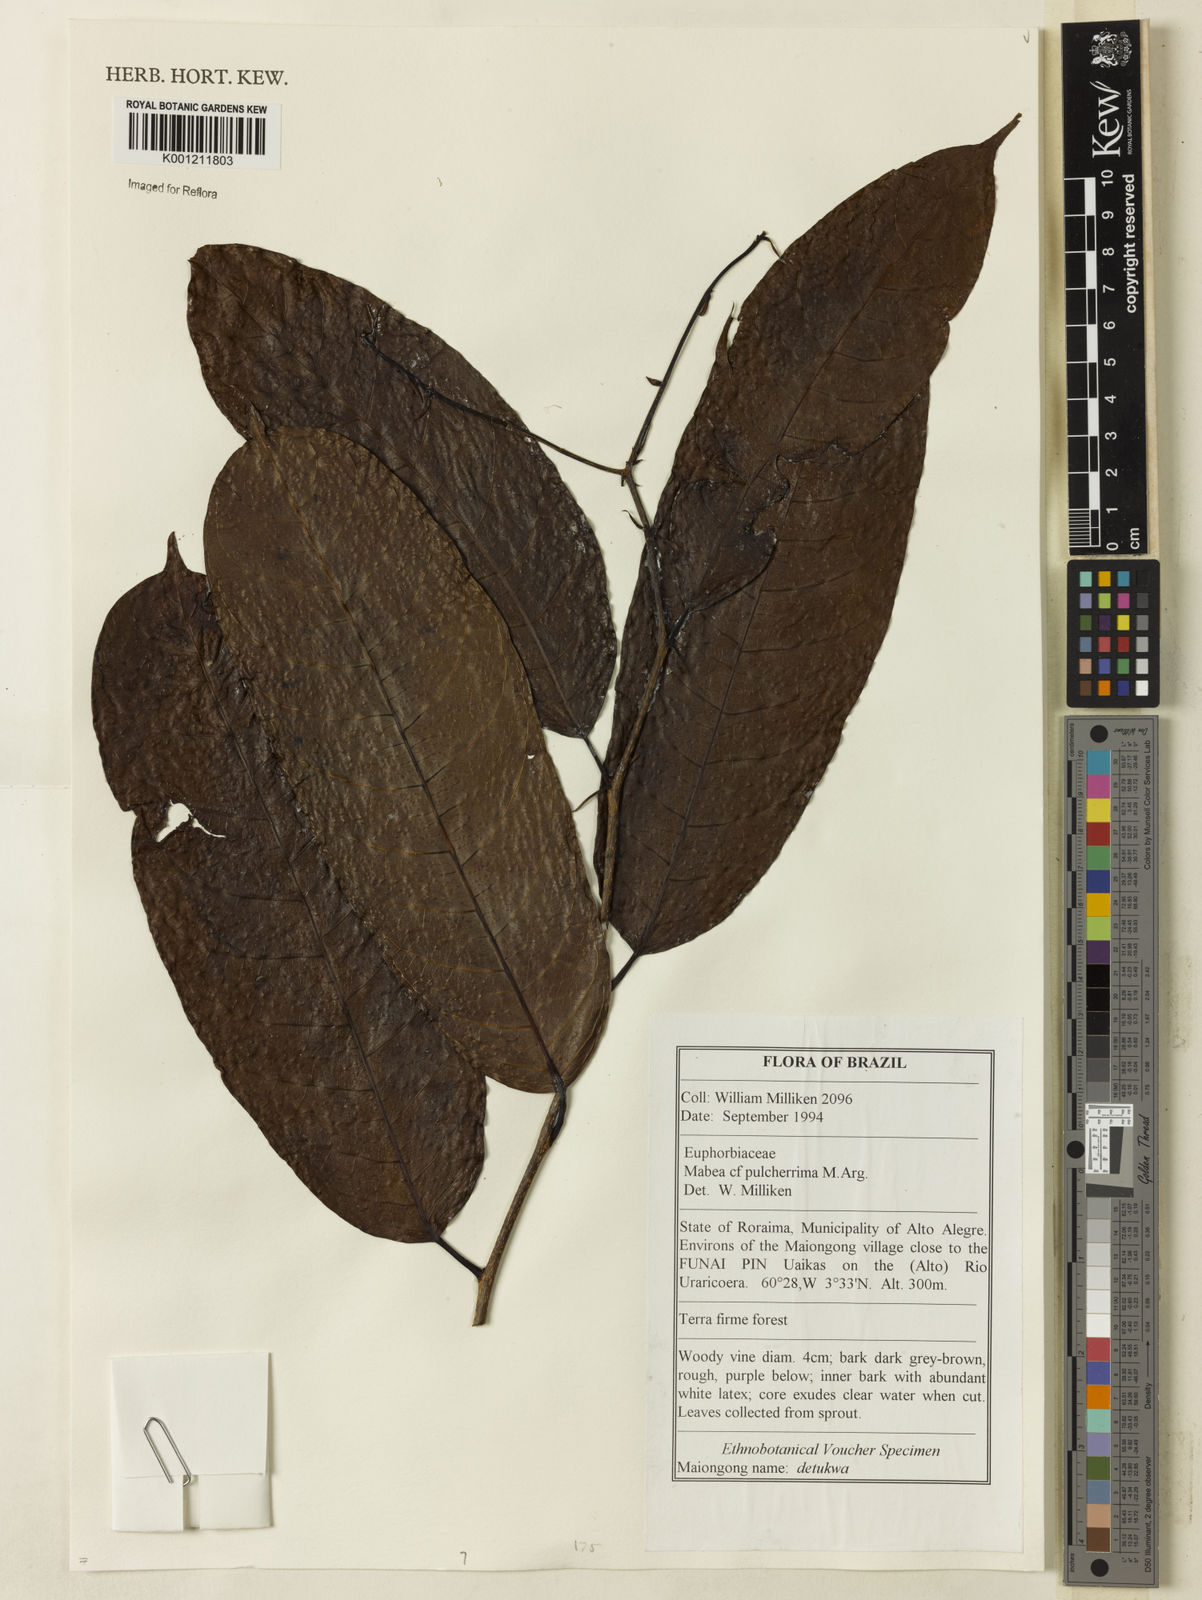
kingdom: Plantae
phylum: Tracheophyta
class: Magnoliopsida
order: Malpighiales
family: Euphorbiaceae
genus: Mabea
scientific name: Mabea
